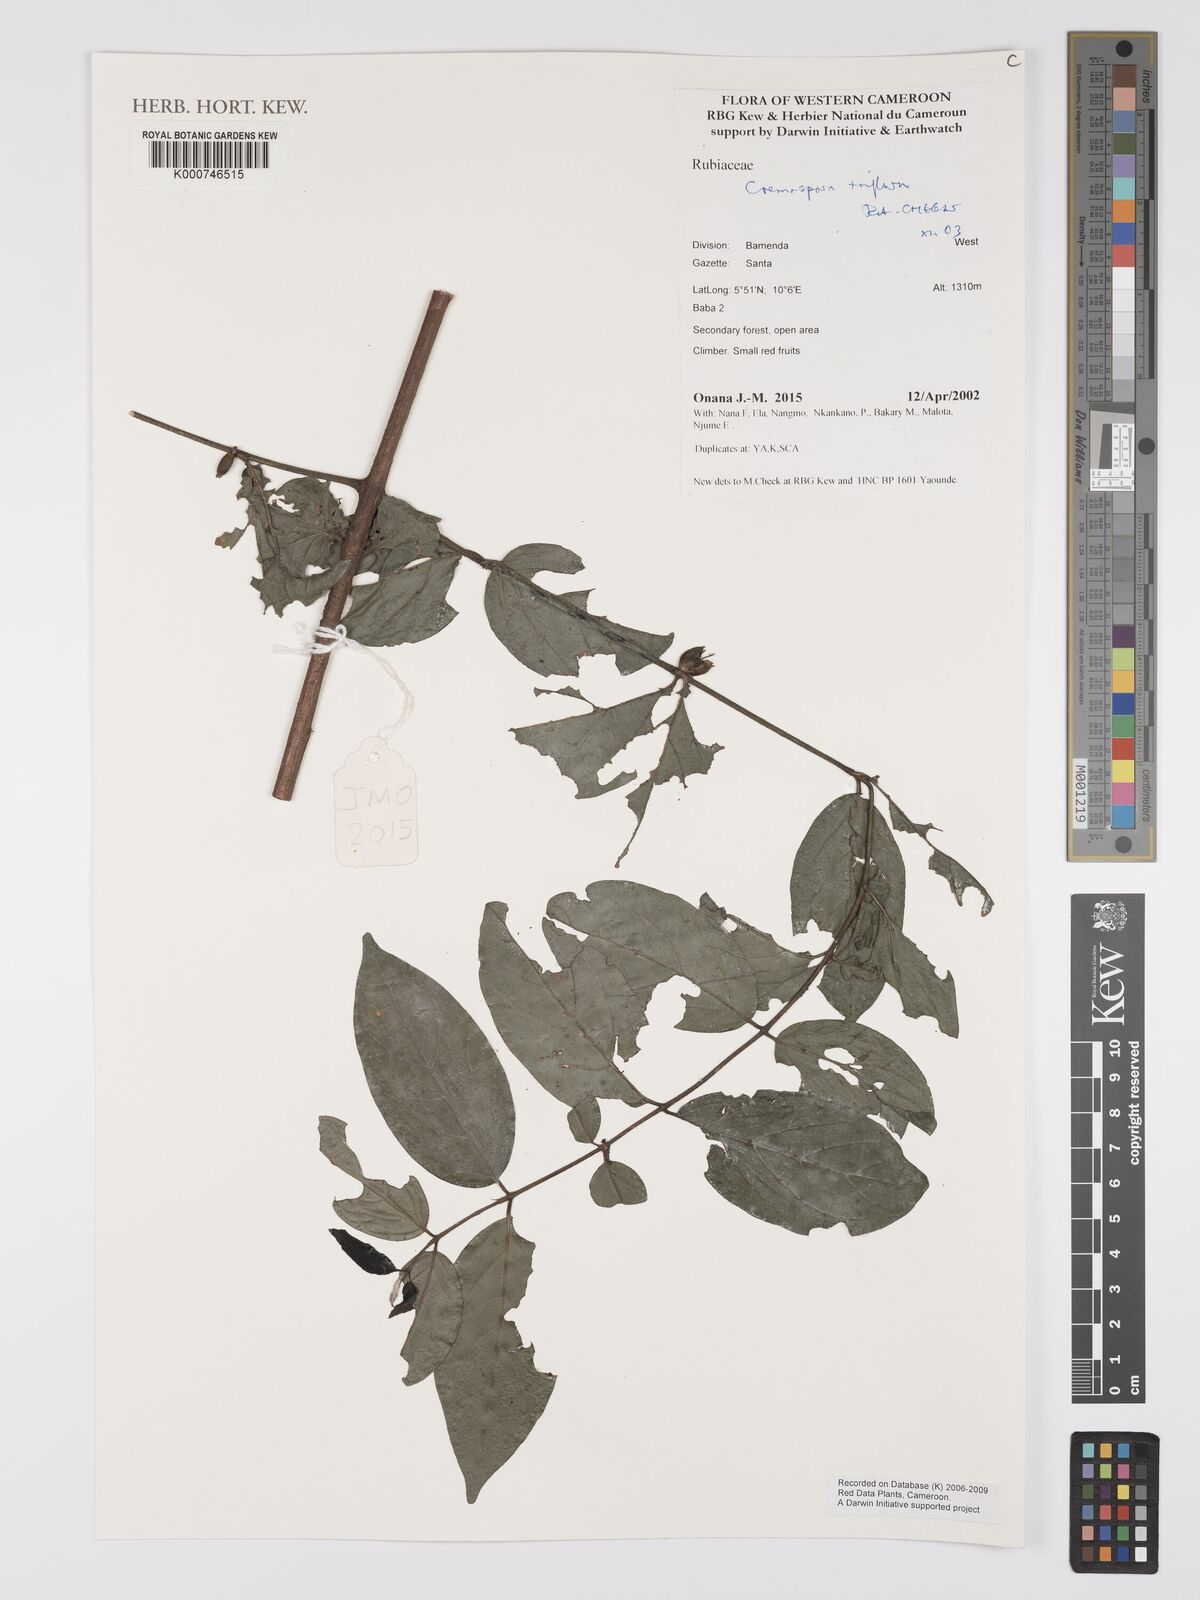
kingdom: Plantae
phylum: Tracheophyta
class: Magnoliopsida
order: Gentianales
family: Rubiaceae
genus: Cremaspora
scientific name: Cremaspora triflora
